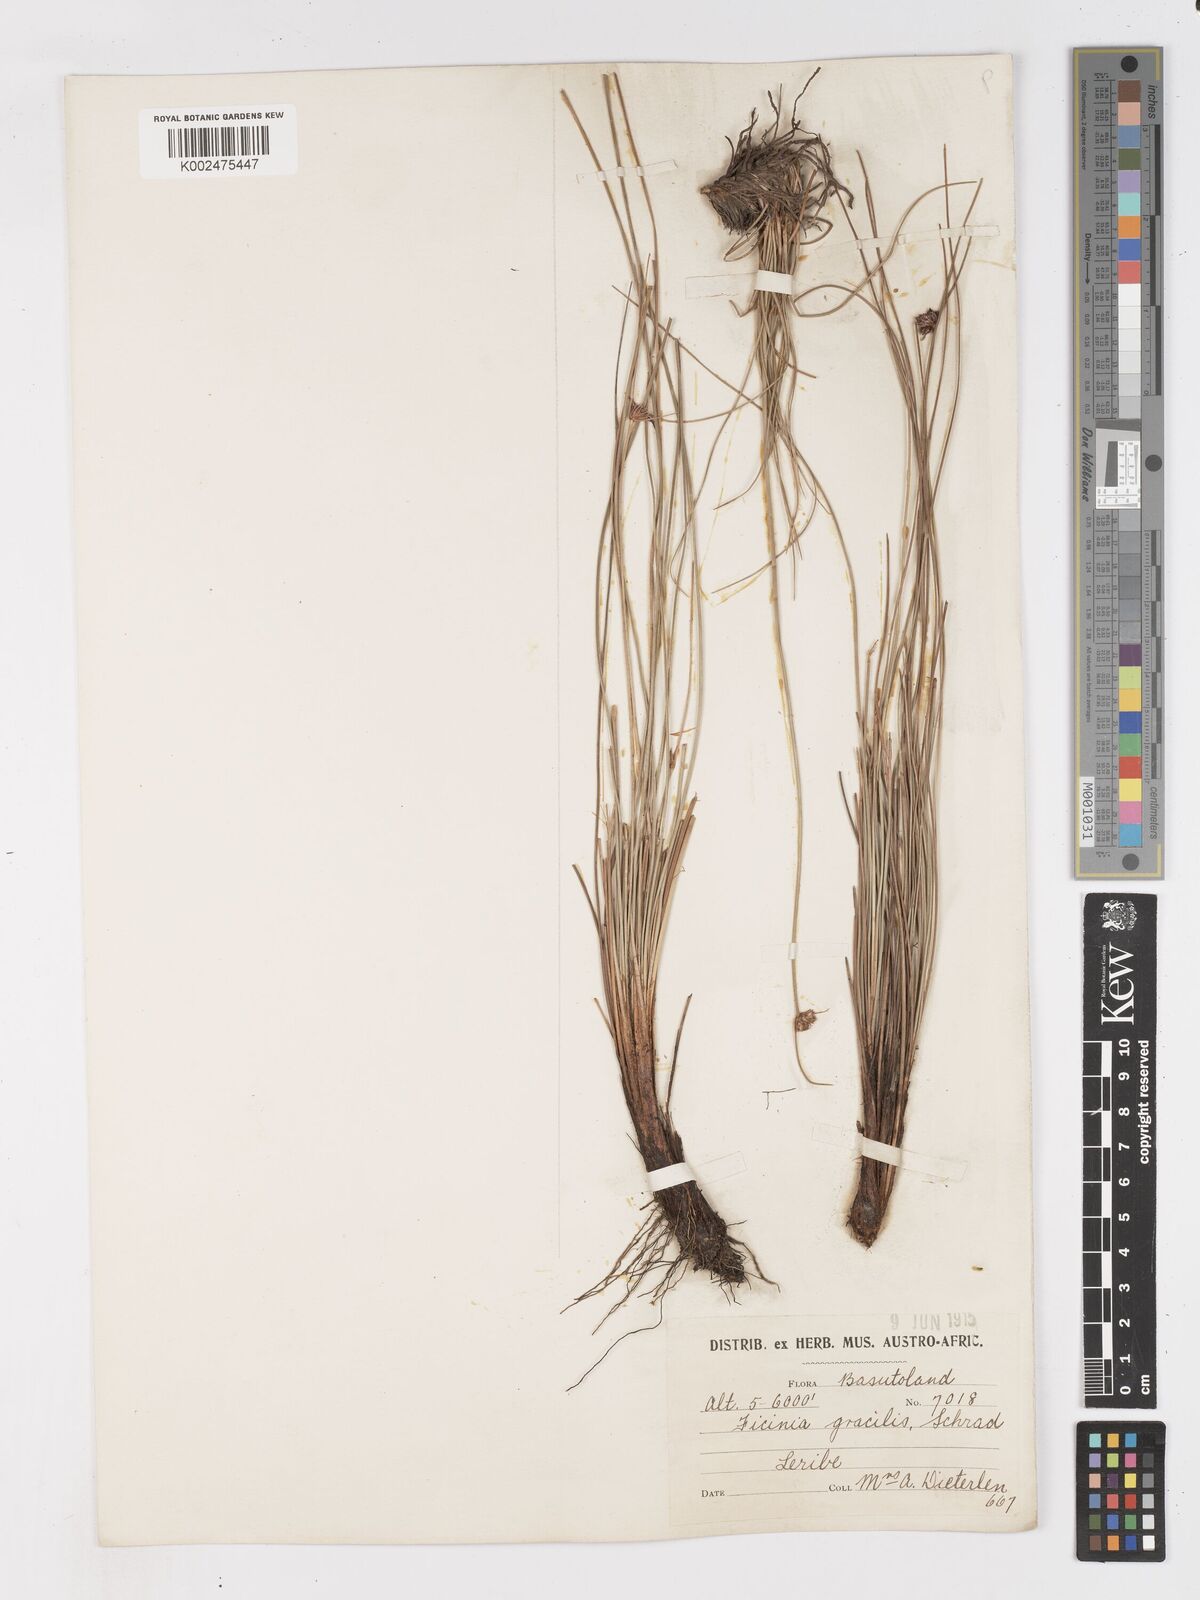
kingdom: Plantae
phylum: Tracheophyta
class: Liliopsida
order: Poales
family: Cyperaceae
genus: Ficinia
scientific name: Ficinia cinnamomea
